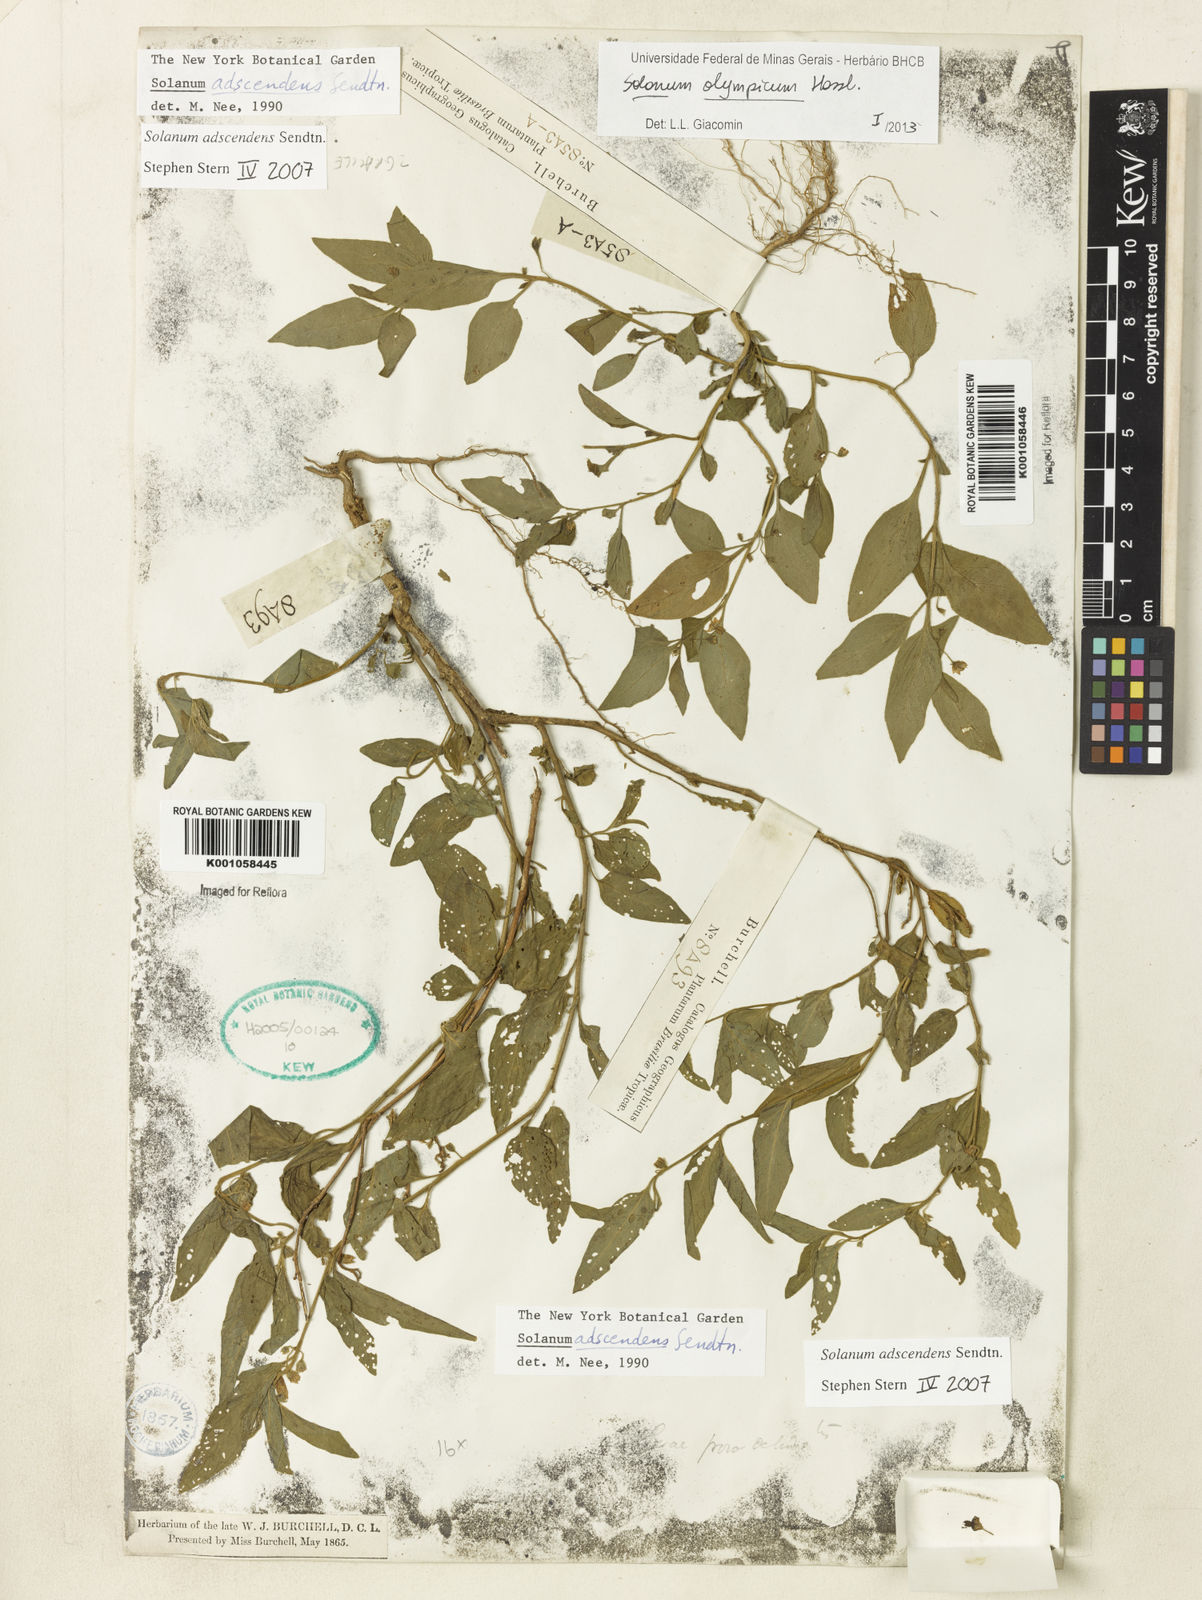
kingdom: Plantae
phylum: Tracheophyta
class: Magnoliopsida
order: Solanales
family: Solanaceae
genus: Solanum
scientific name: Solanum
